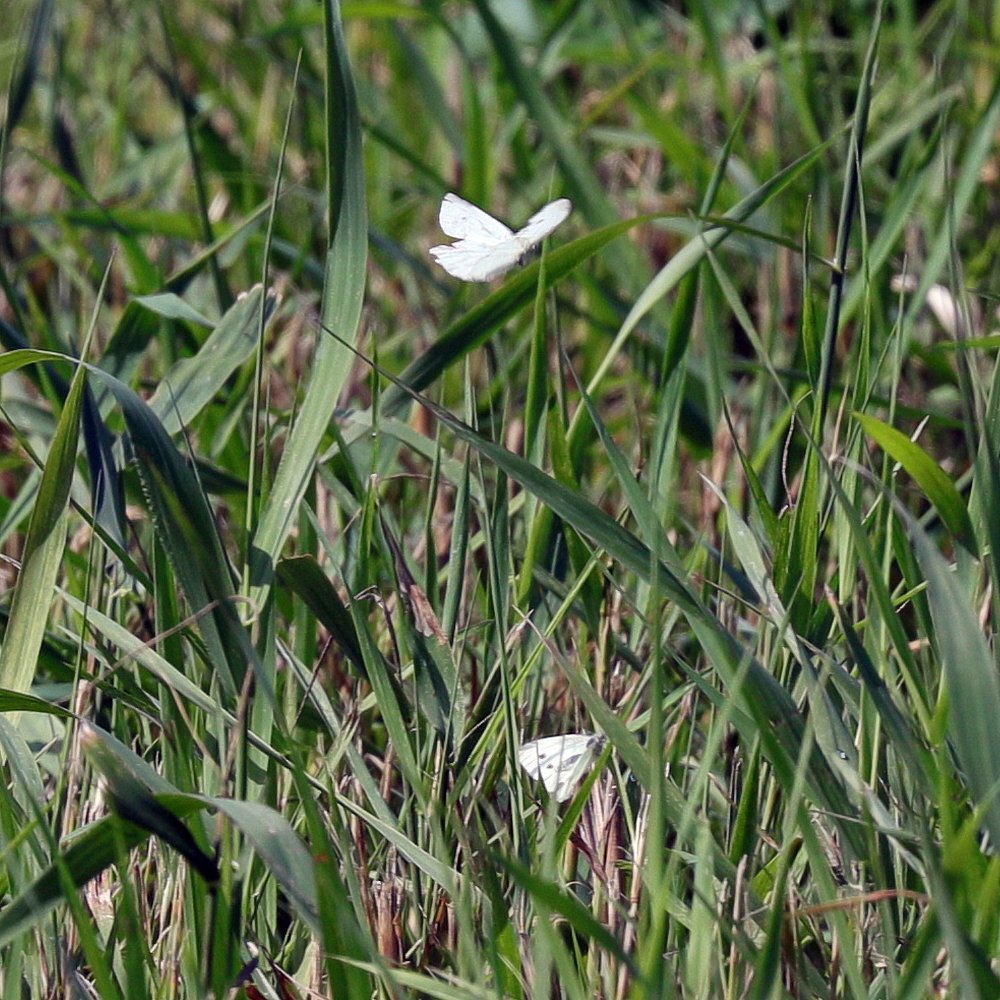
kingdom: Animalia
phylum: Arthropoda
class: Insecta
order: Lepidoptera
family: Pieridae
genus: Pieris
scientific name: Pieris rapae
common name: Cabbage White
